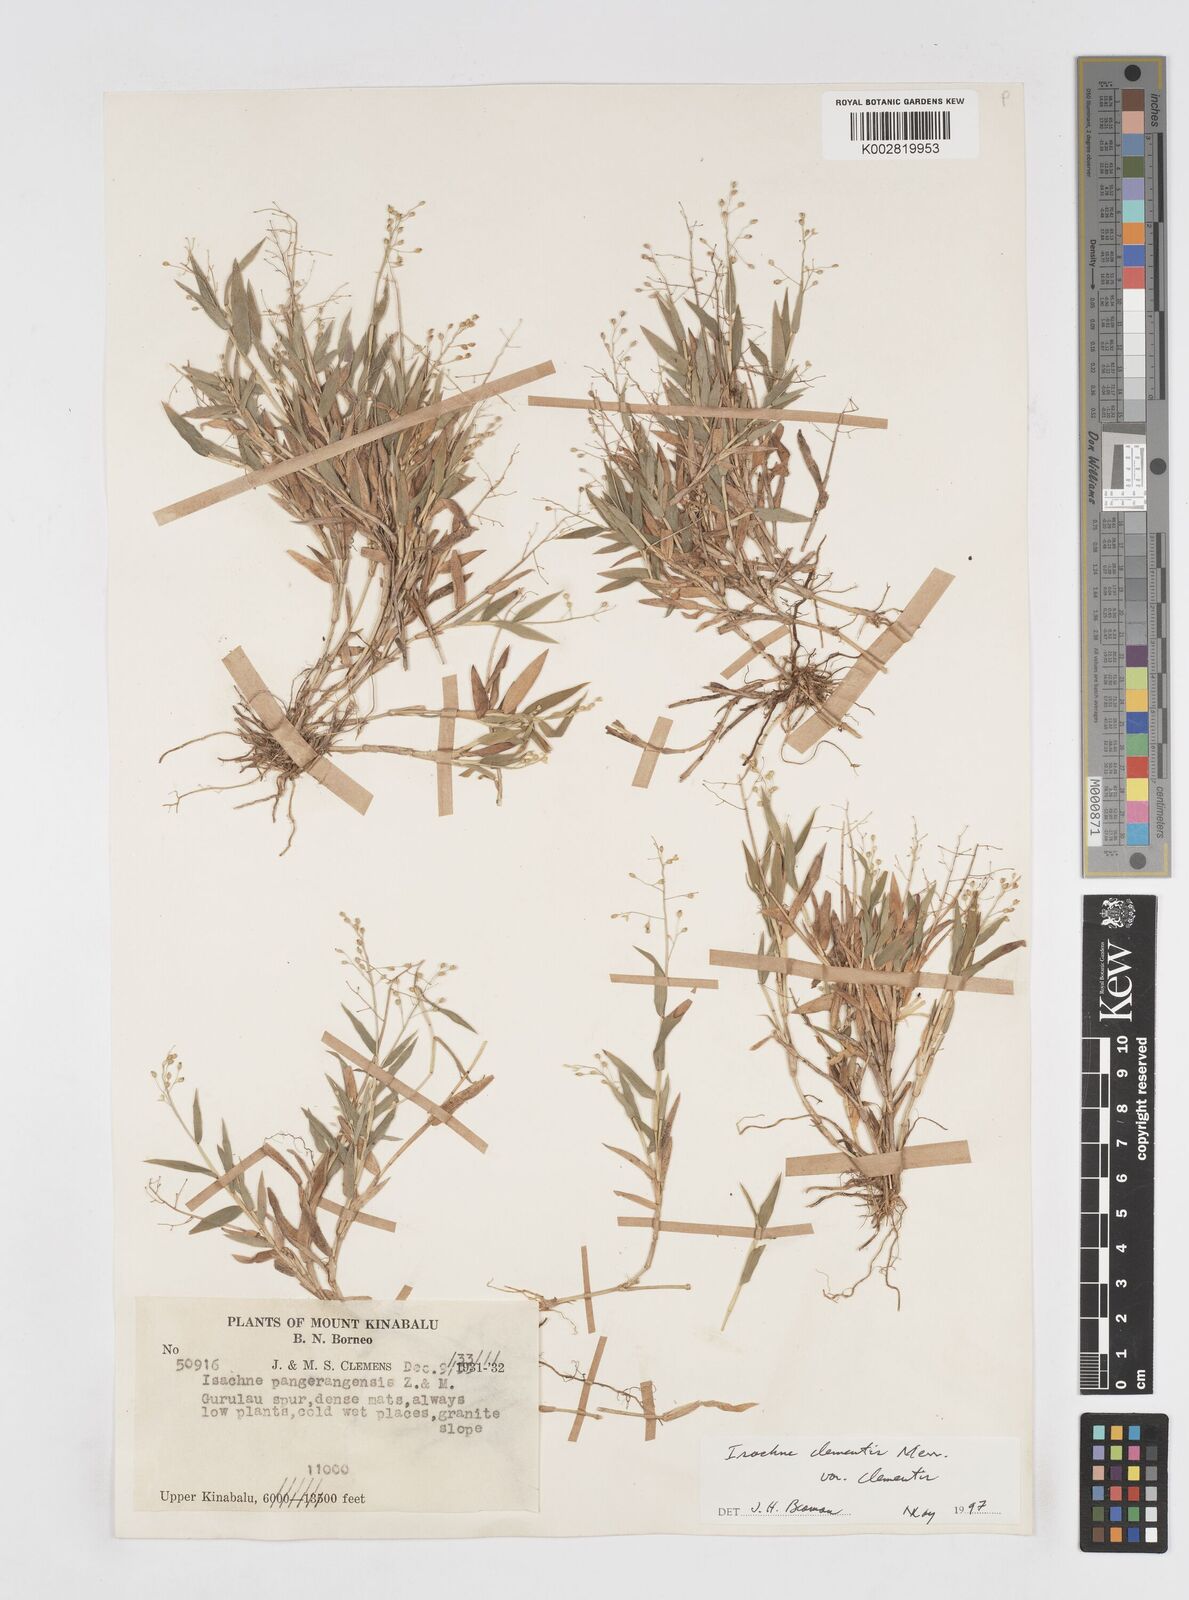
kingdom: Plantae
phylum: Tracheophyta
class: Liliopsida
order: Poales
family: Poaceae
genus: Isachne
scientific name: Isachne clementis
